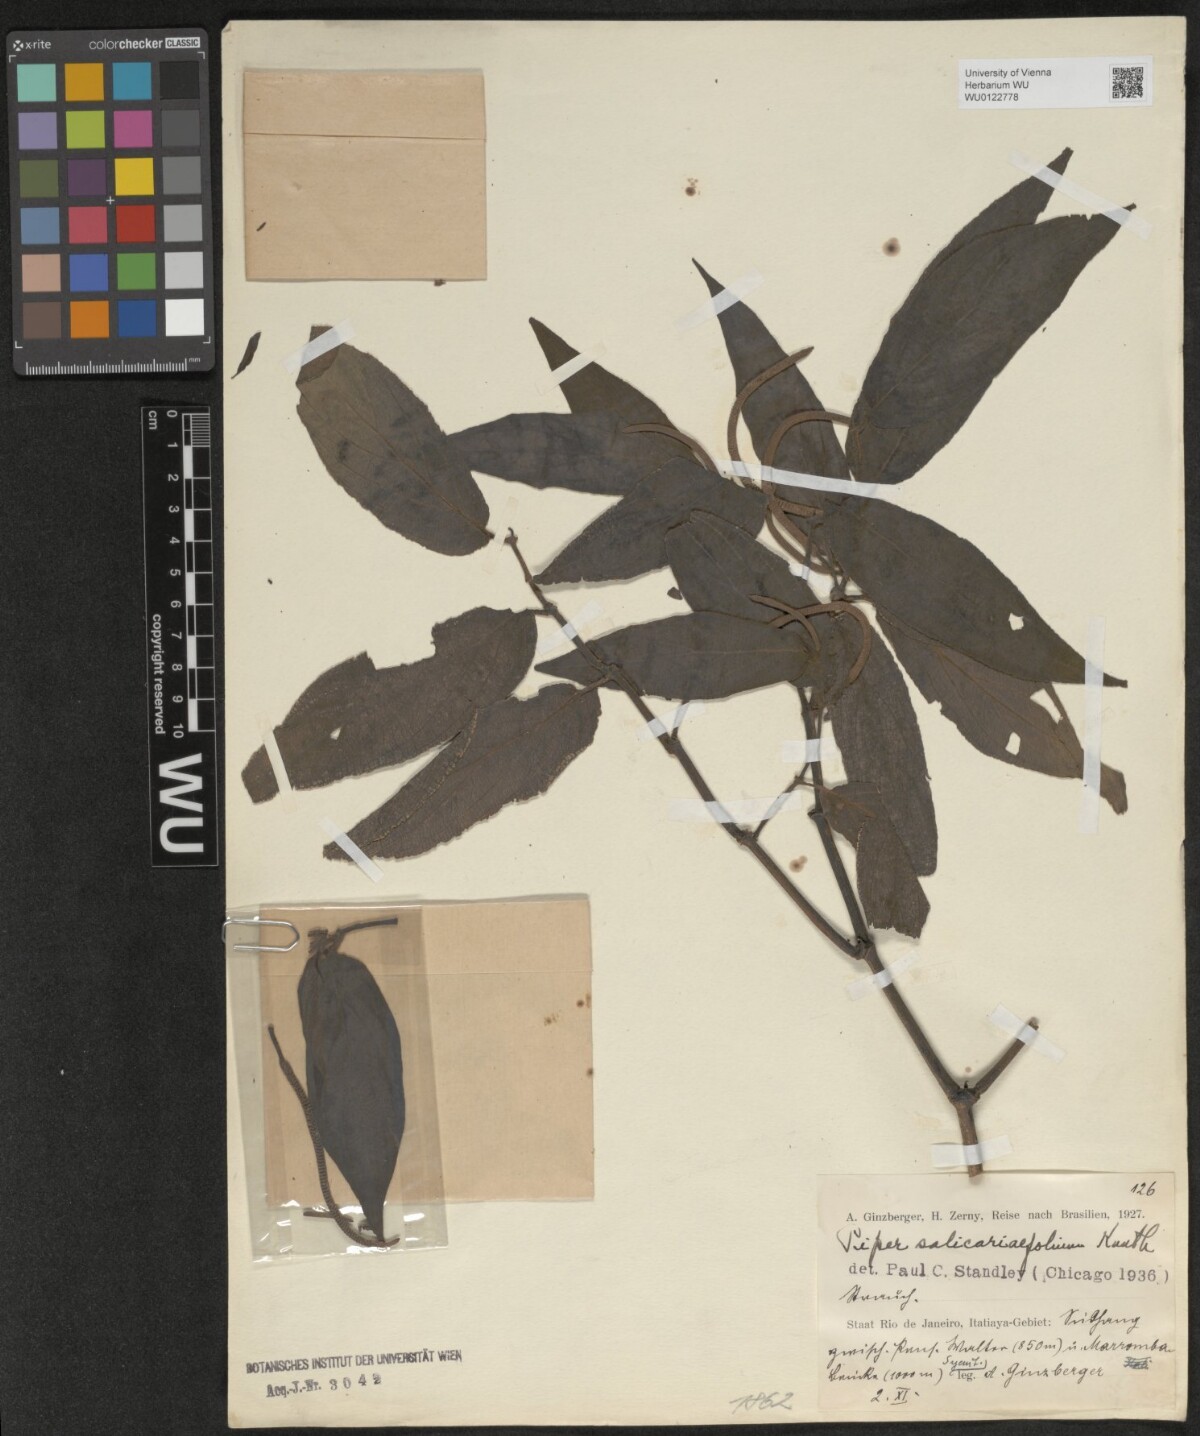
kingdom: Plantae
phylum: Tracheophyta
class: Magnoliopsida
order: Piperales
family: Piperaceae
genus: Piper
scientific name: Piper gaudichaudianum
